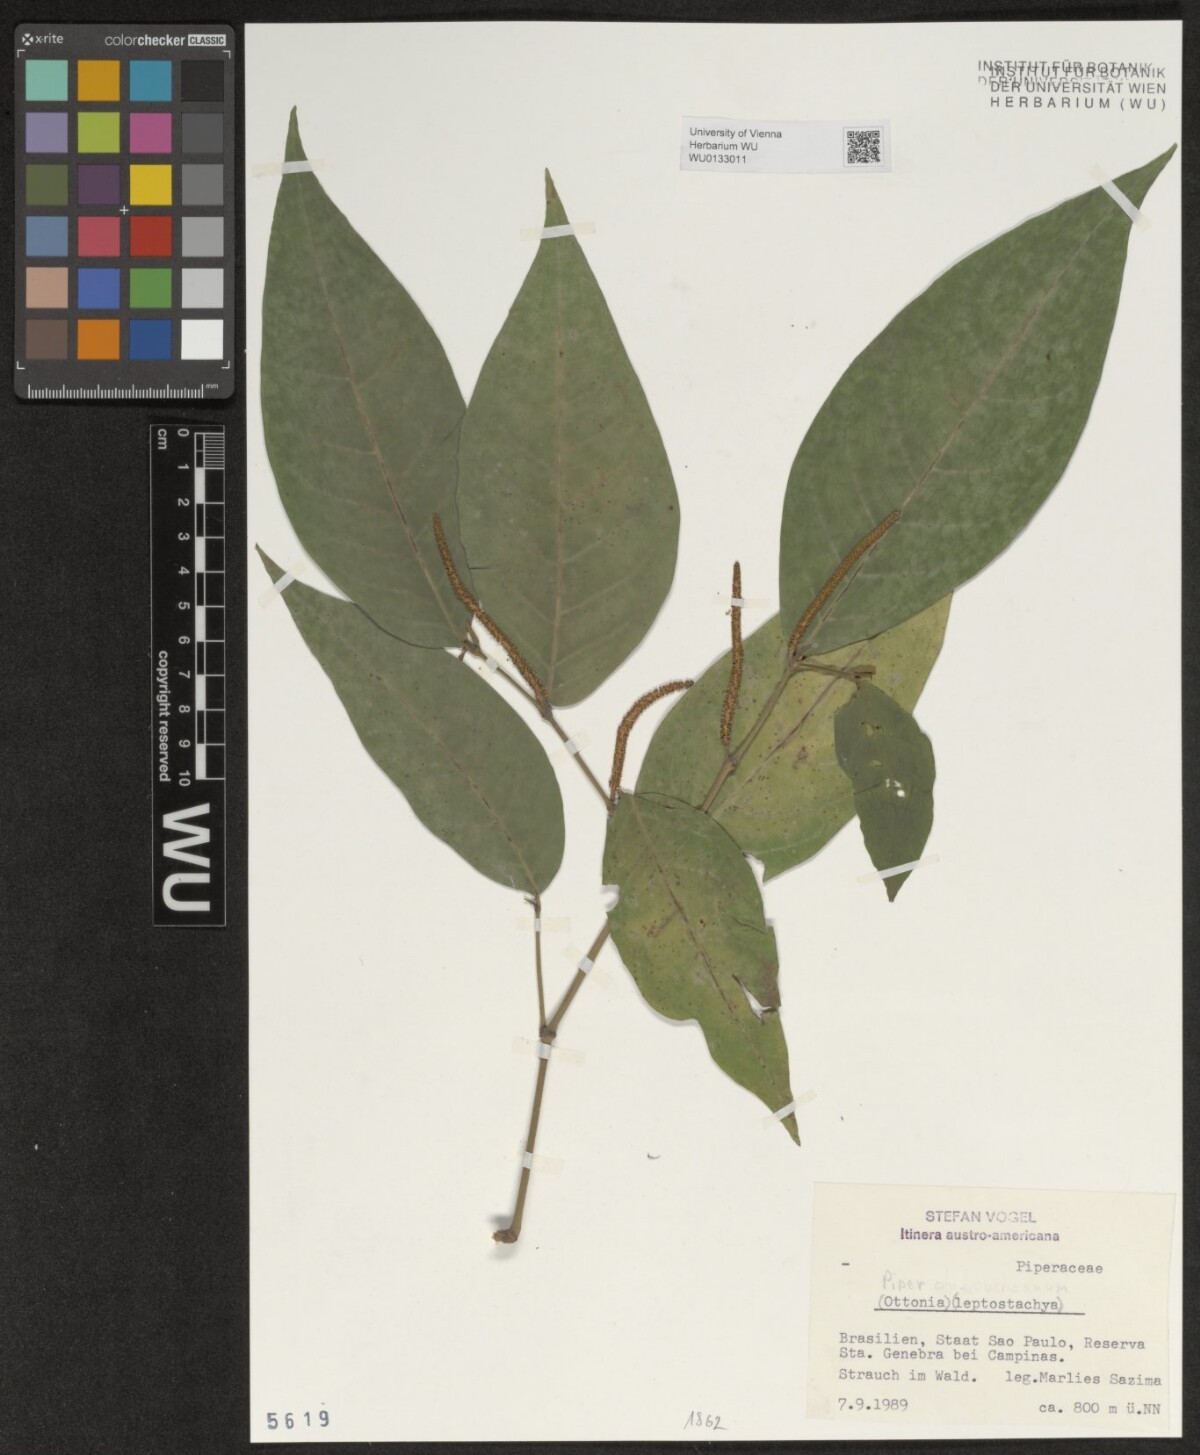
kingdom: Plantae
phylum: Tracheophyta
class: Magnoliopsida
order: Piperales
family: Piperaceae
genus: Piper
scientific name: Piper
